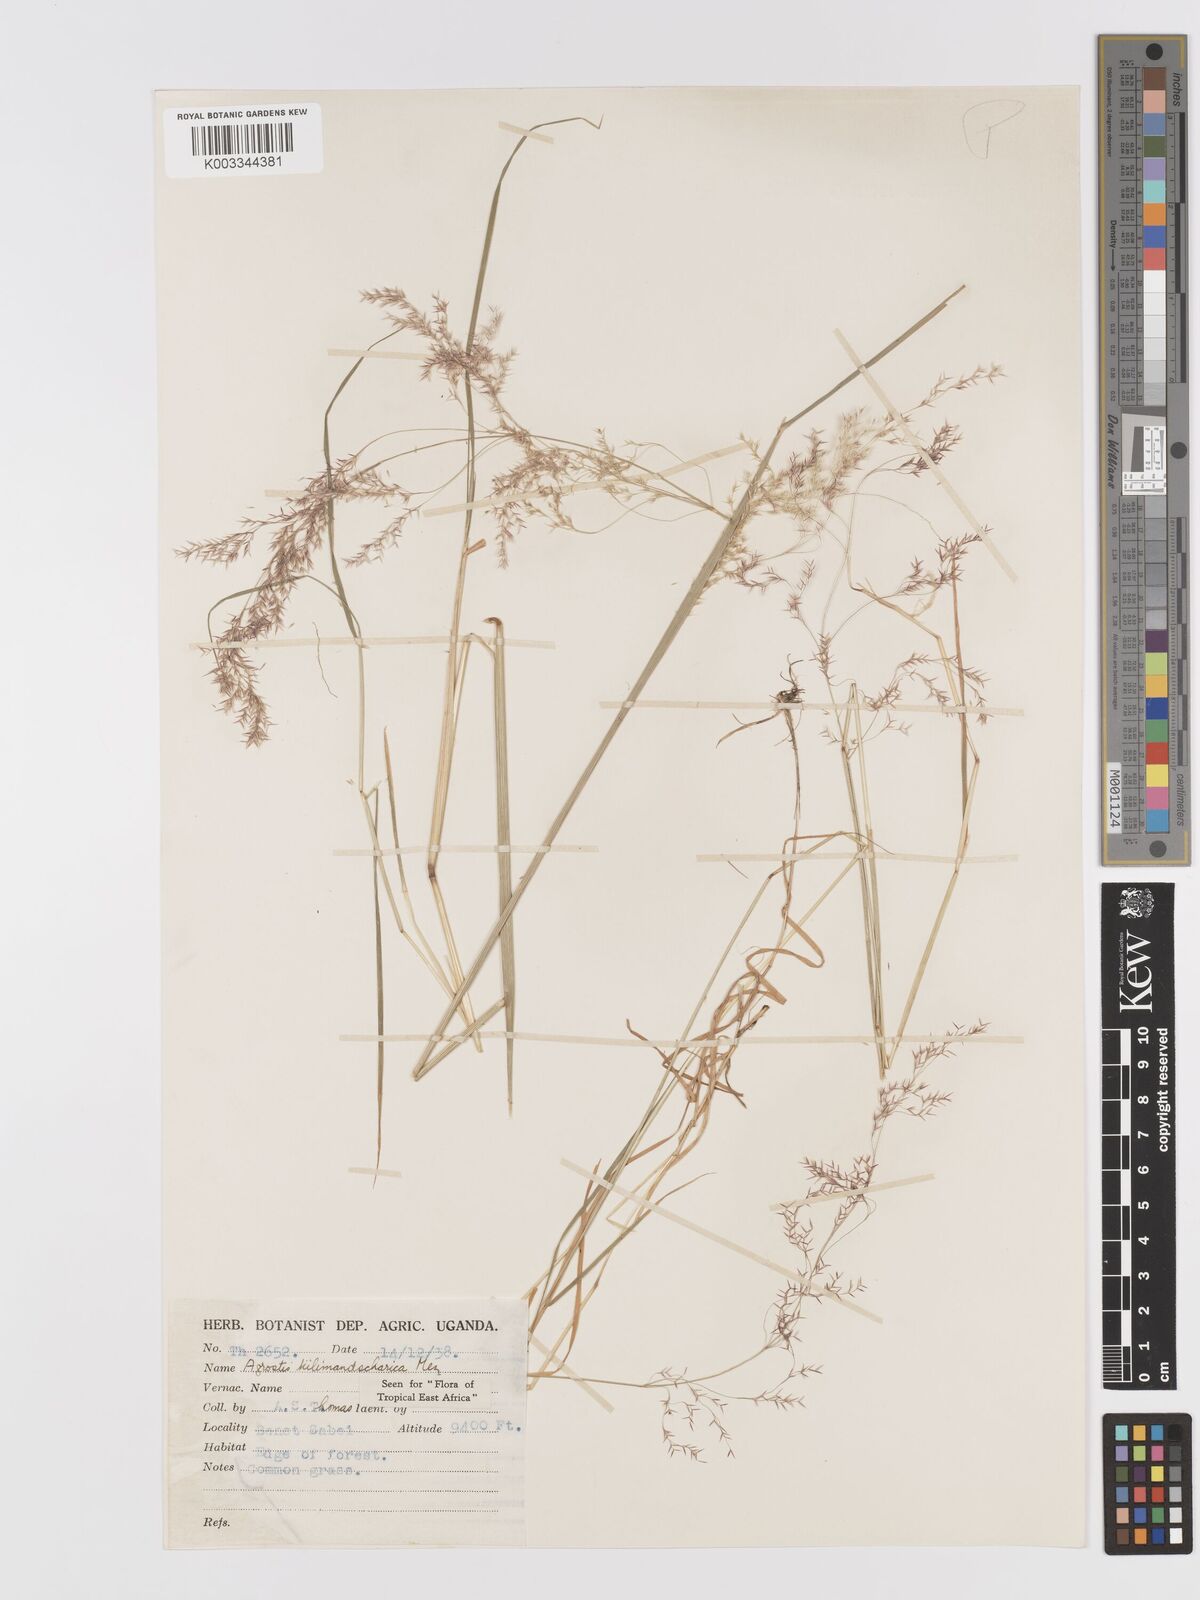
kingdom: Plantae
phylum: Tracheophyta
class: Liliopsida
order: Poales
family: Poaceae
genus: Agrostis
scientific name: Agrostis kilimandscharica
